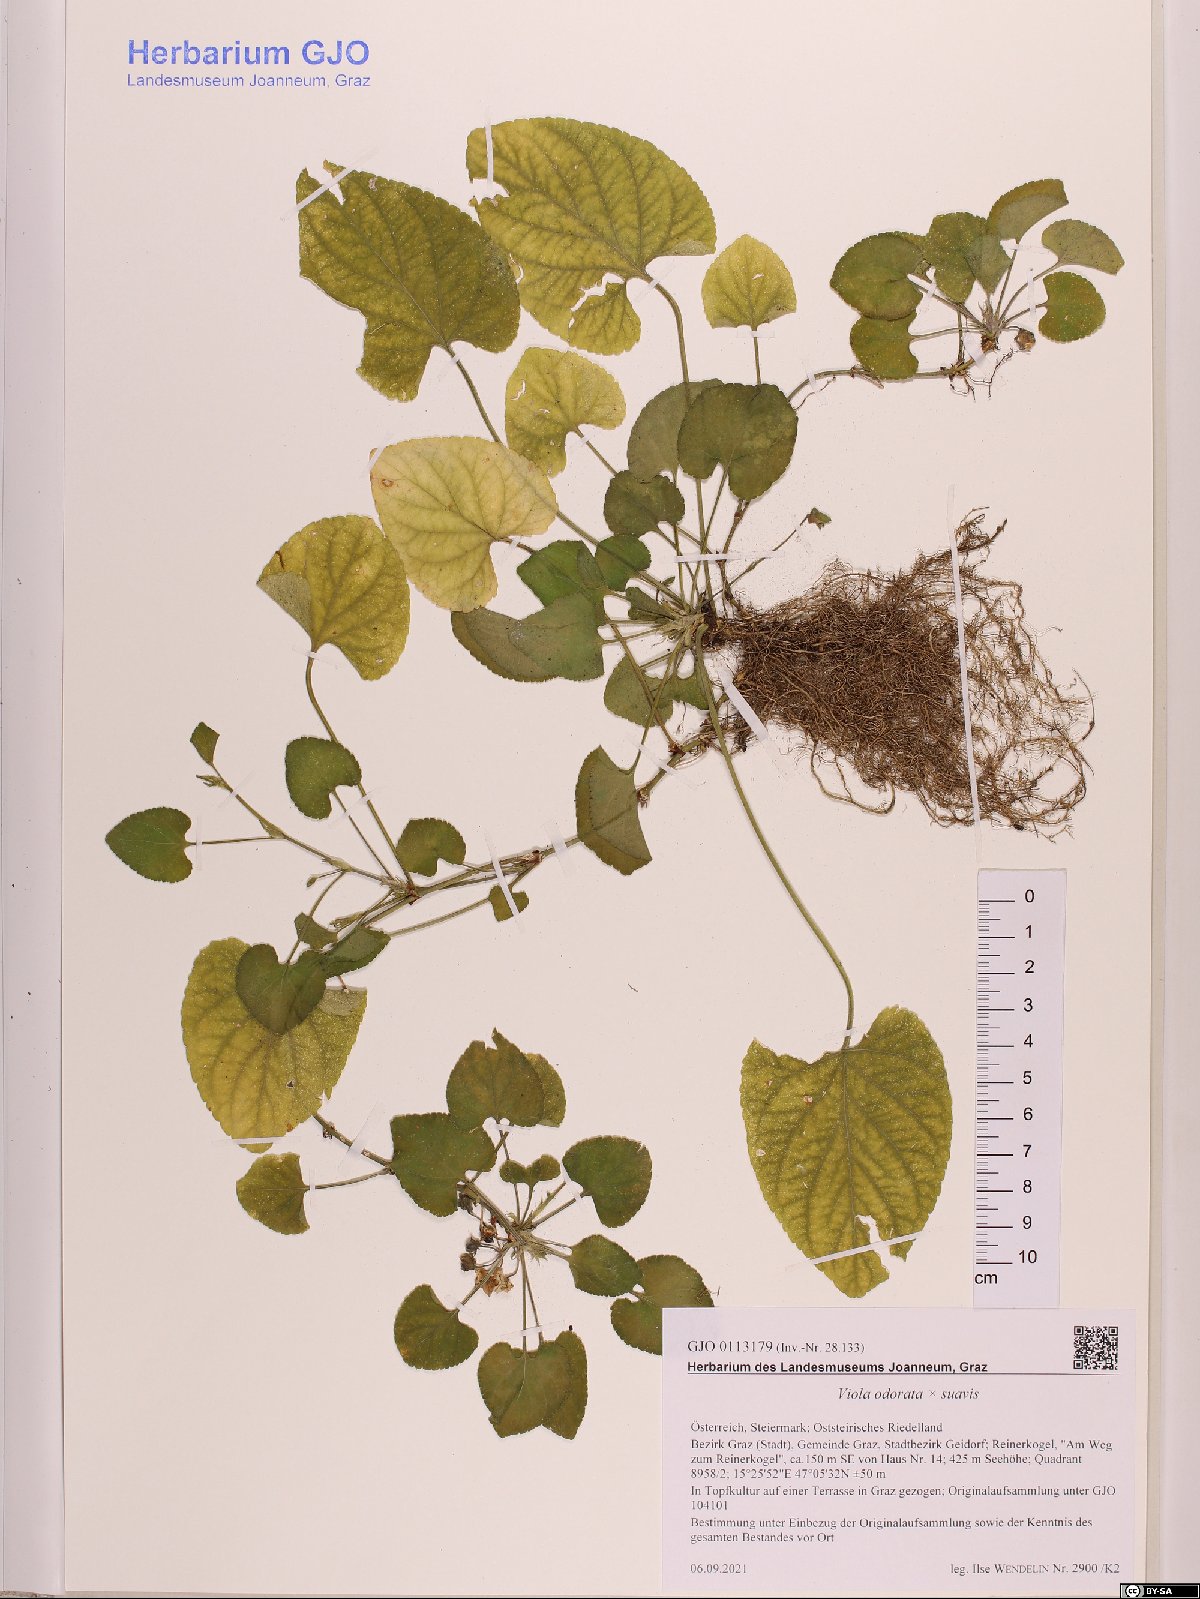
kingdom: Plantae
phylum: Tracheophyta
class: Magnoliopsida
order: Malpighiales
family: Violaceae
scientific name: Violaceae
